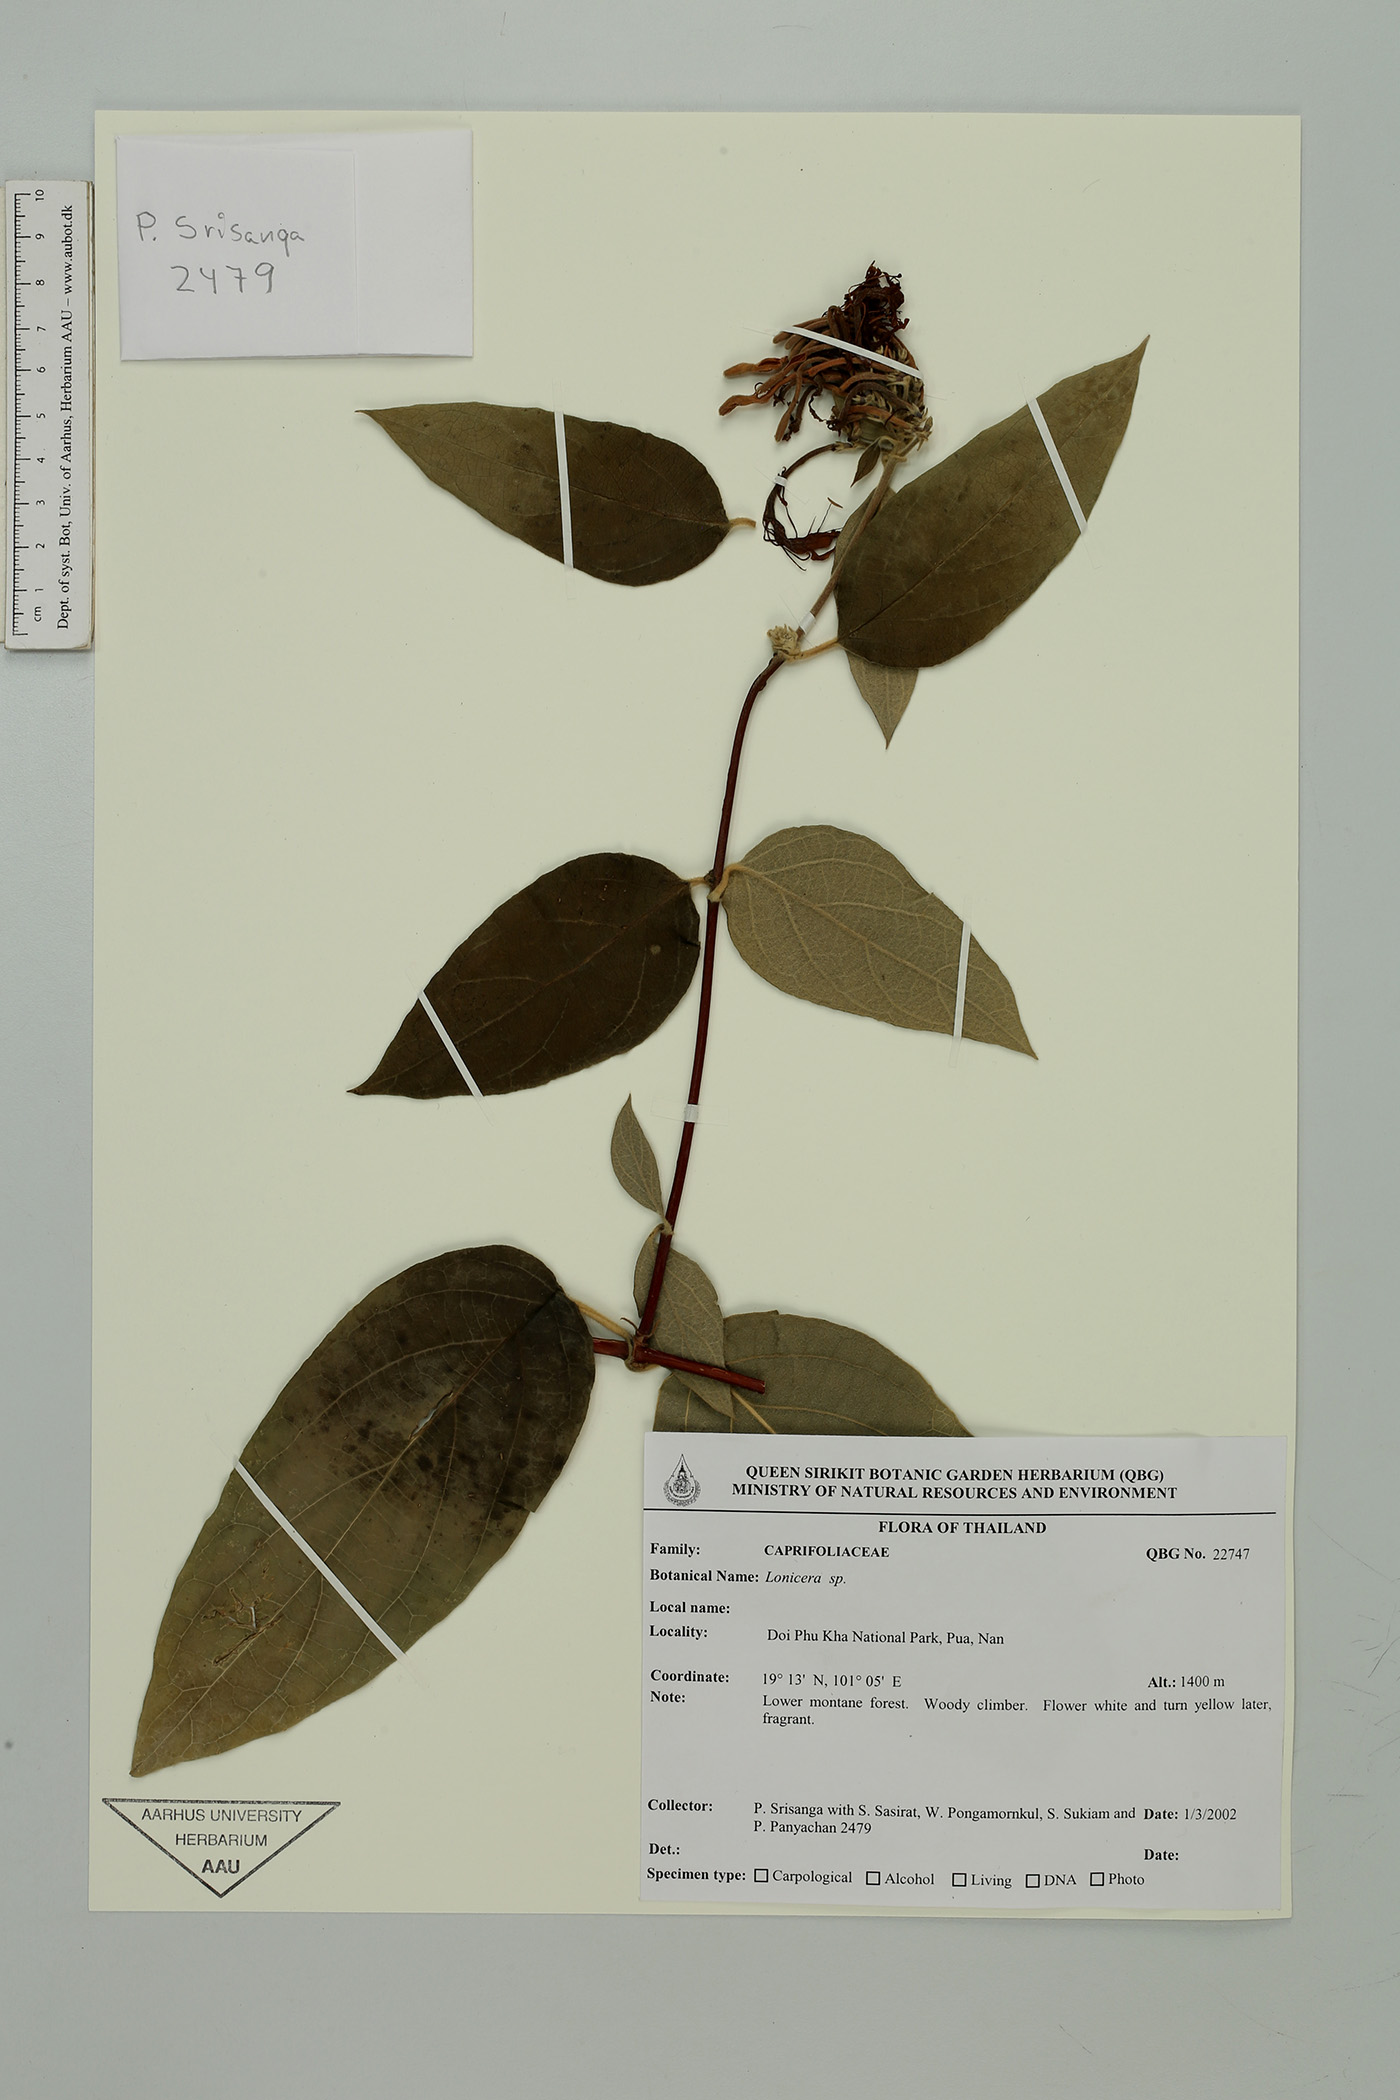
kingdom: Plantae
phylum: Tracheophyta
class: Magnoliopsida
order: Dipsacales
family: Caprifoliaceae
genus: Lonicera
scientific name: Lonicera
